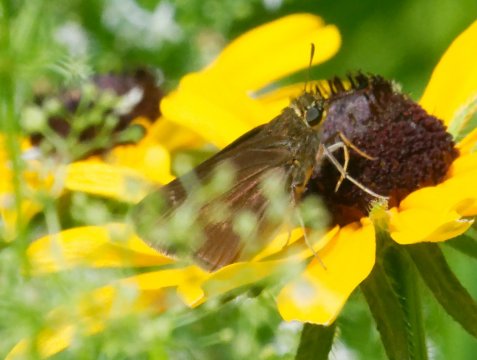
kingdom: Animalia
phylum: Arthropoda
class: Insecta
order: Lepidoptera
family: Hesperiidae
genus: Hesperia
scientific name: Hesperia
